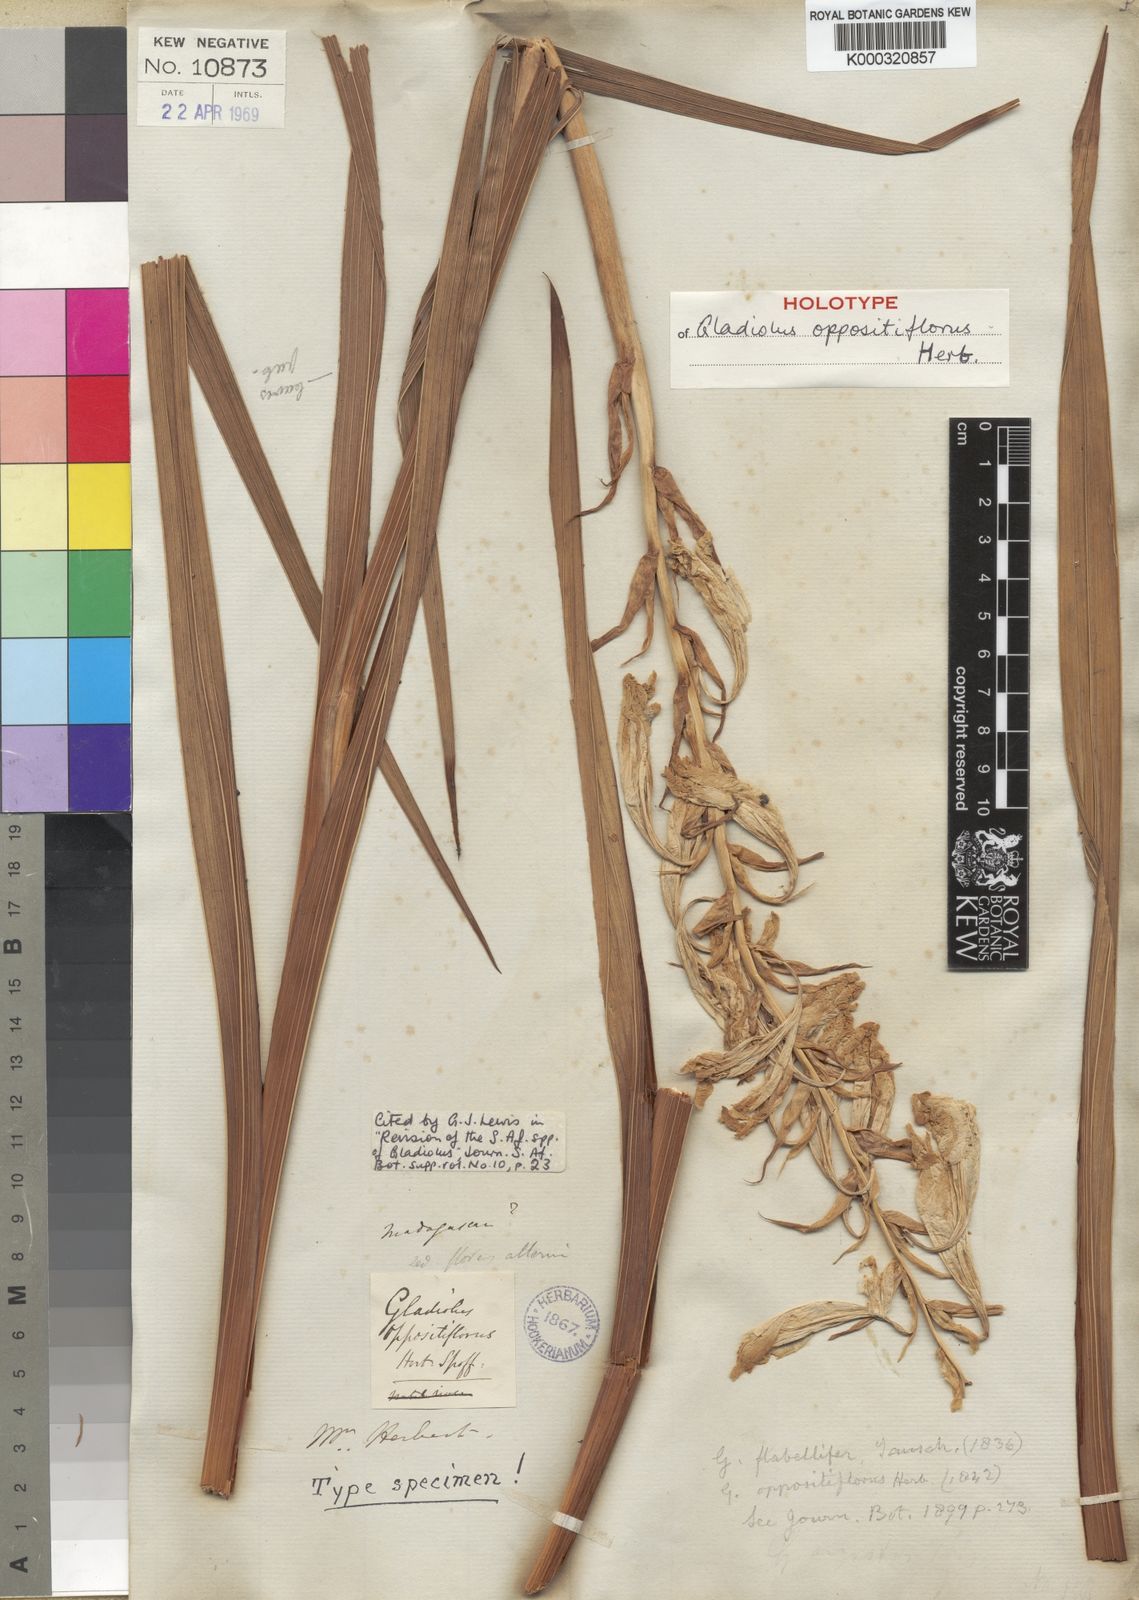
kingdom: Plantae
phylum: Tracheophyta
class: Liliopsida
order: Asparagales
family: Iridaceae
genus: Gladiolus
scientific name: Gladiolus oppositiflorus
